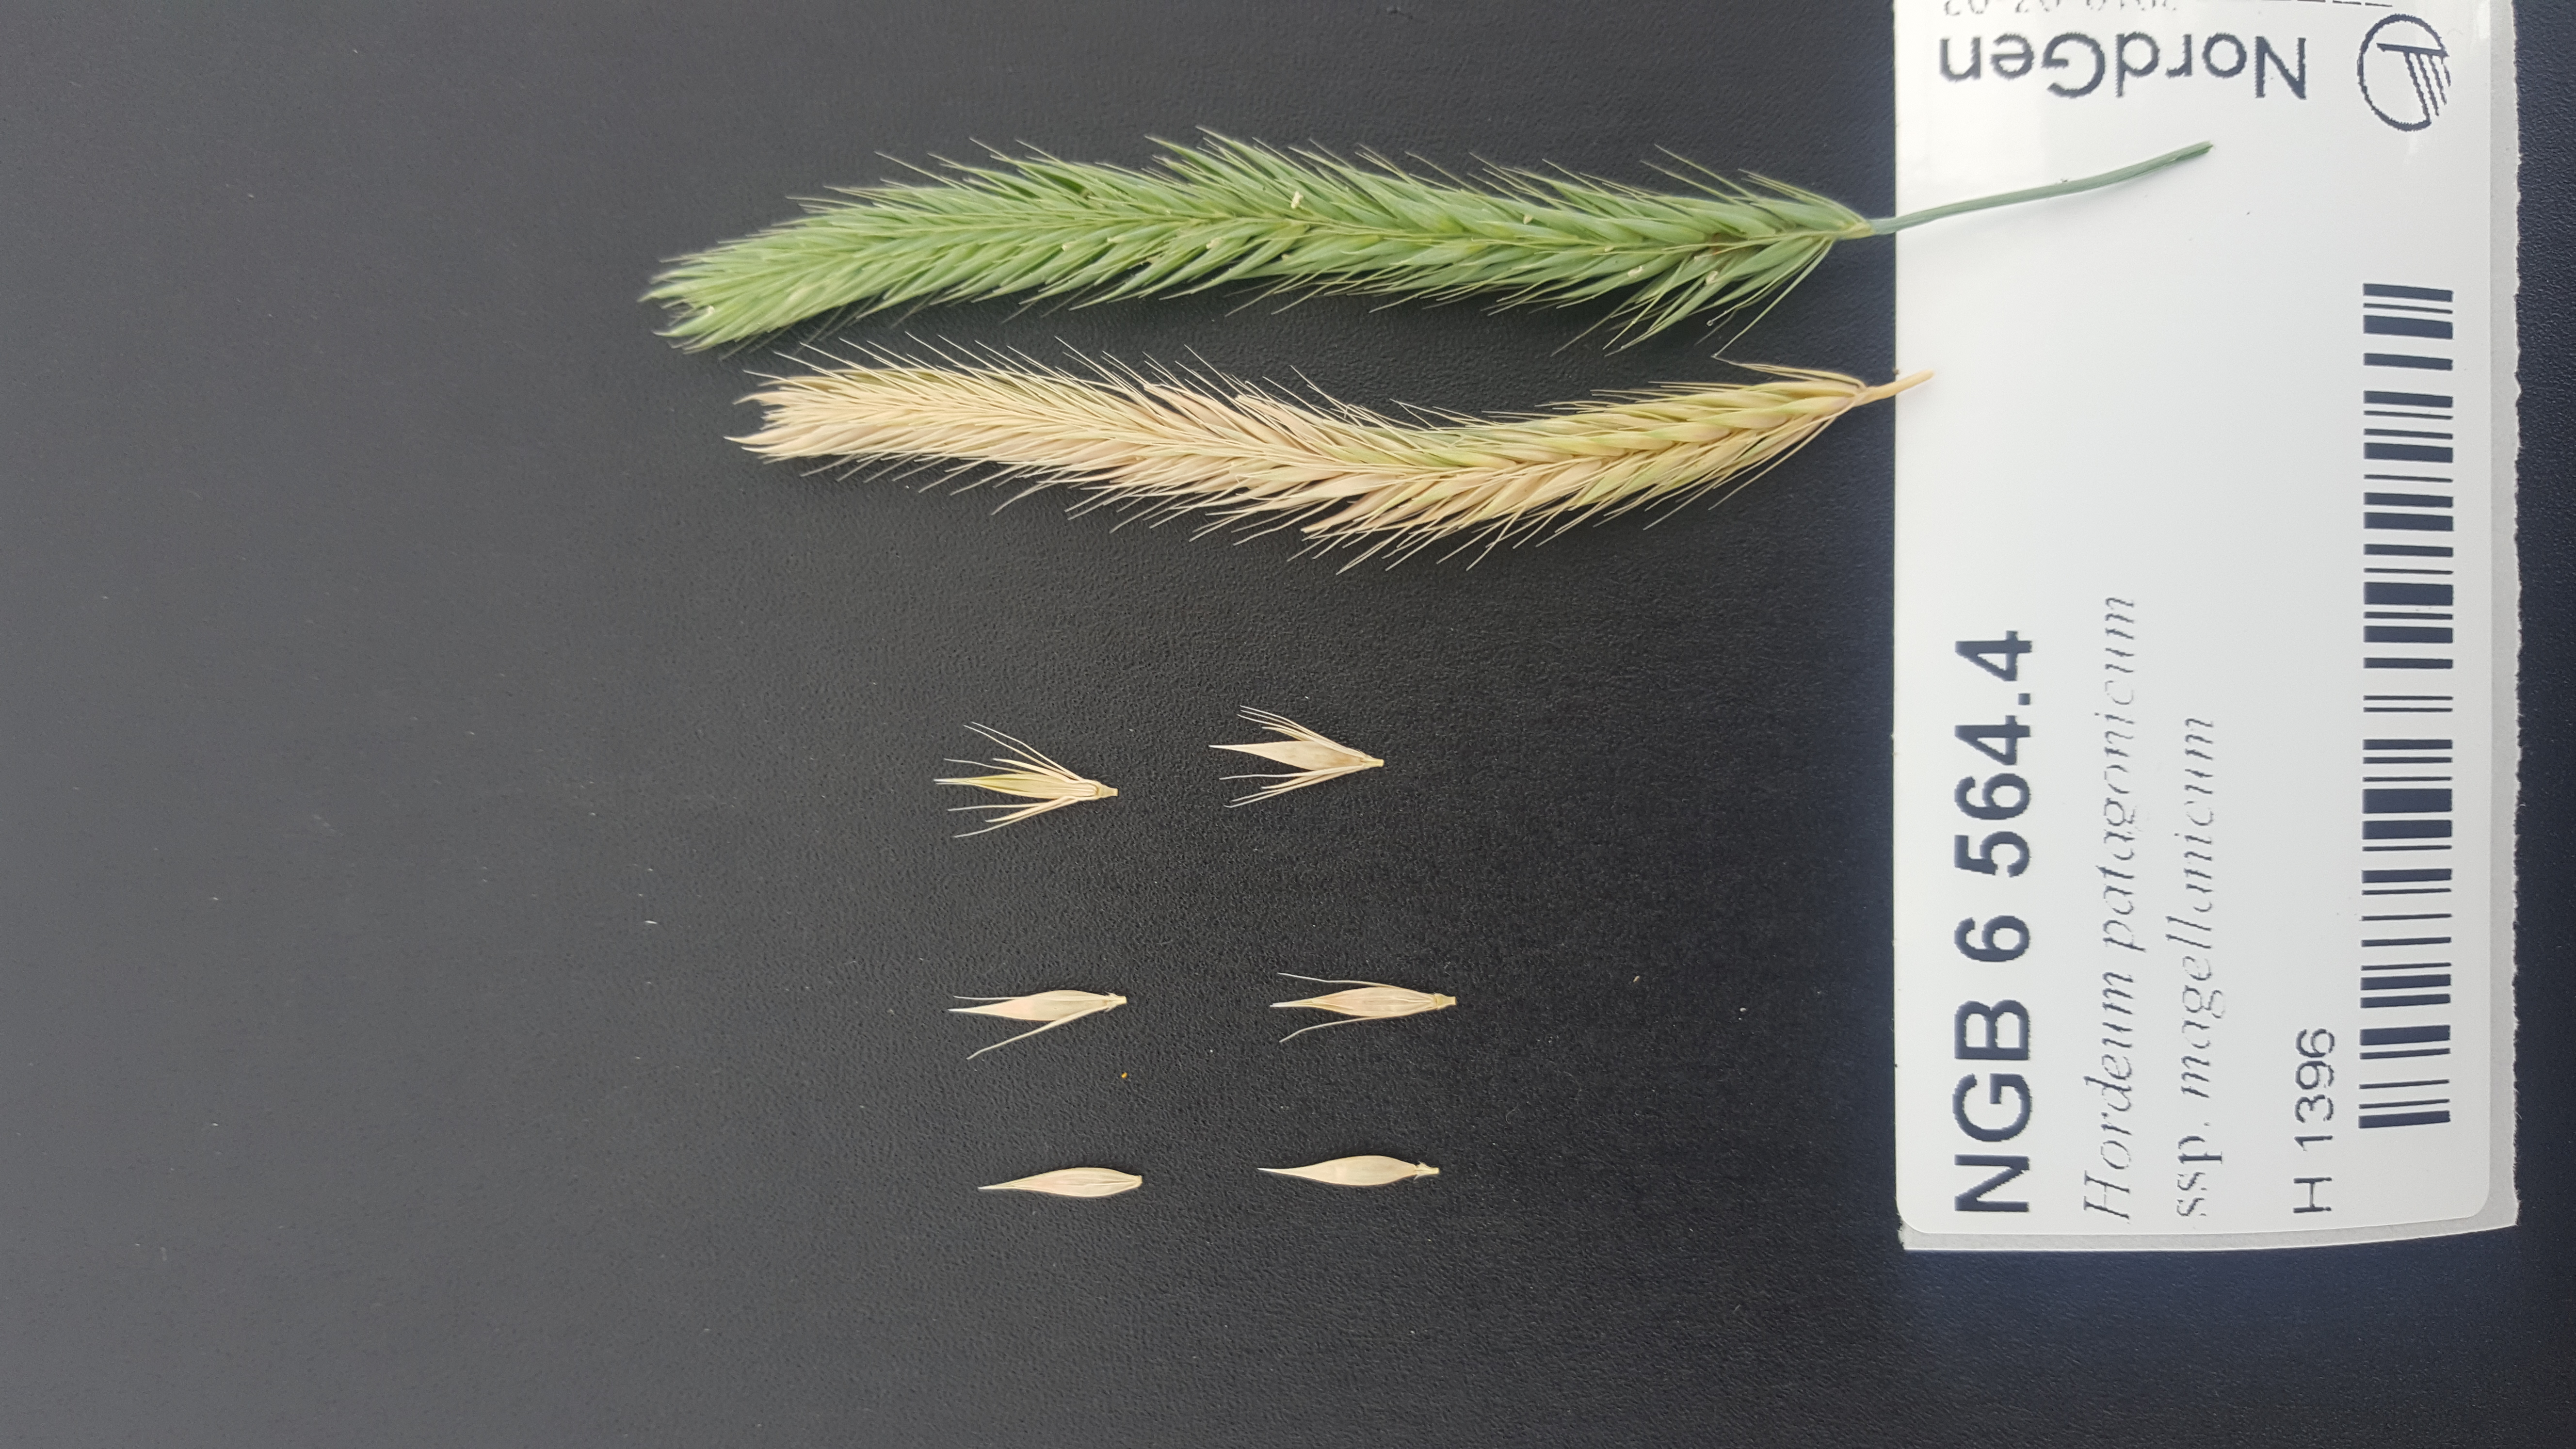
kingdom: Plantae
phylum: Tracheophyta
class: Liliopsida
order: Poales
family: Poaceae
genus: Hordeum
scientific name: Hordeum patagonicum
